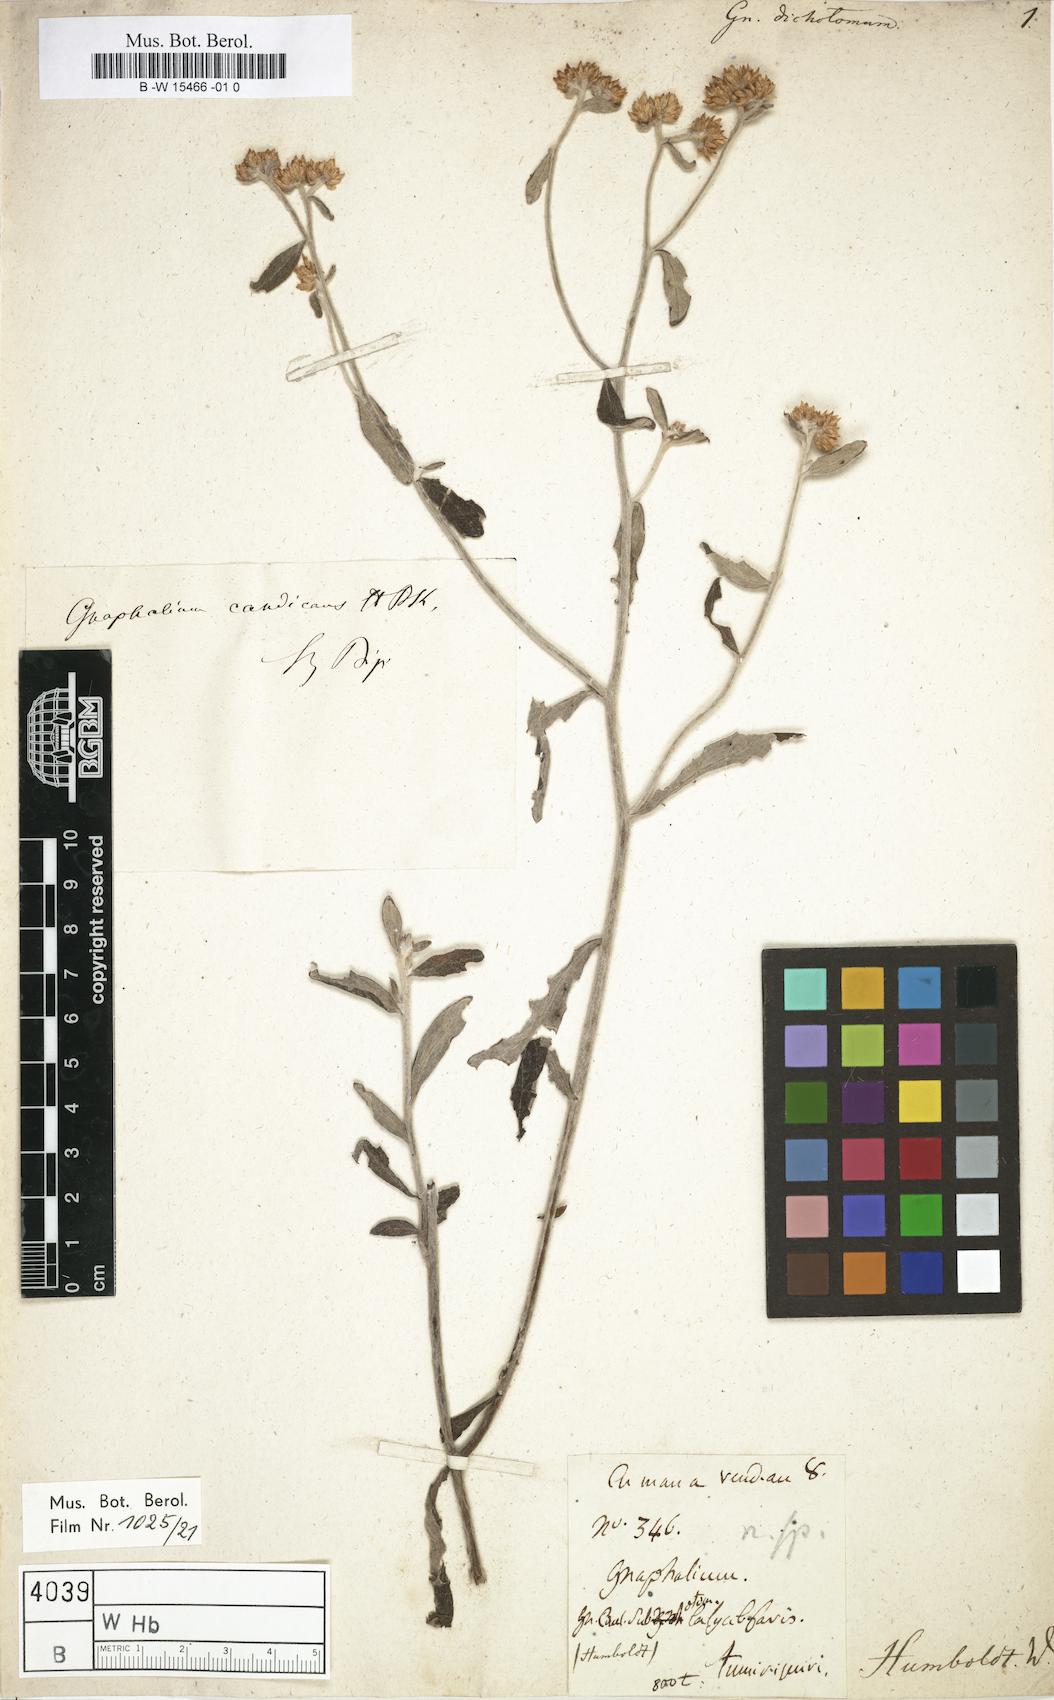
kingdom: Plantae
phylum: Tracheophyta
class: Magnoliopsida
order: Asterales
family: Asteraceae
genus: Pseudognaphalium
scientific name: Pseudognaphalium dichotomum
